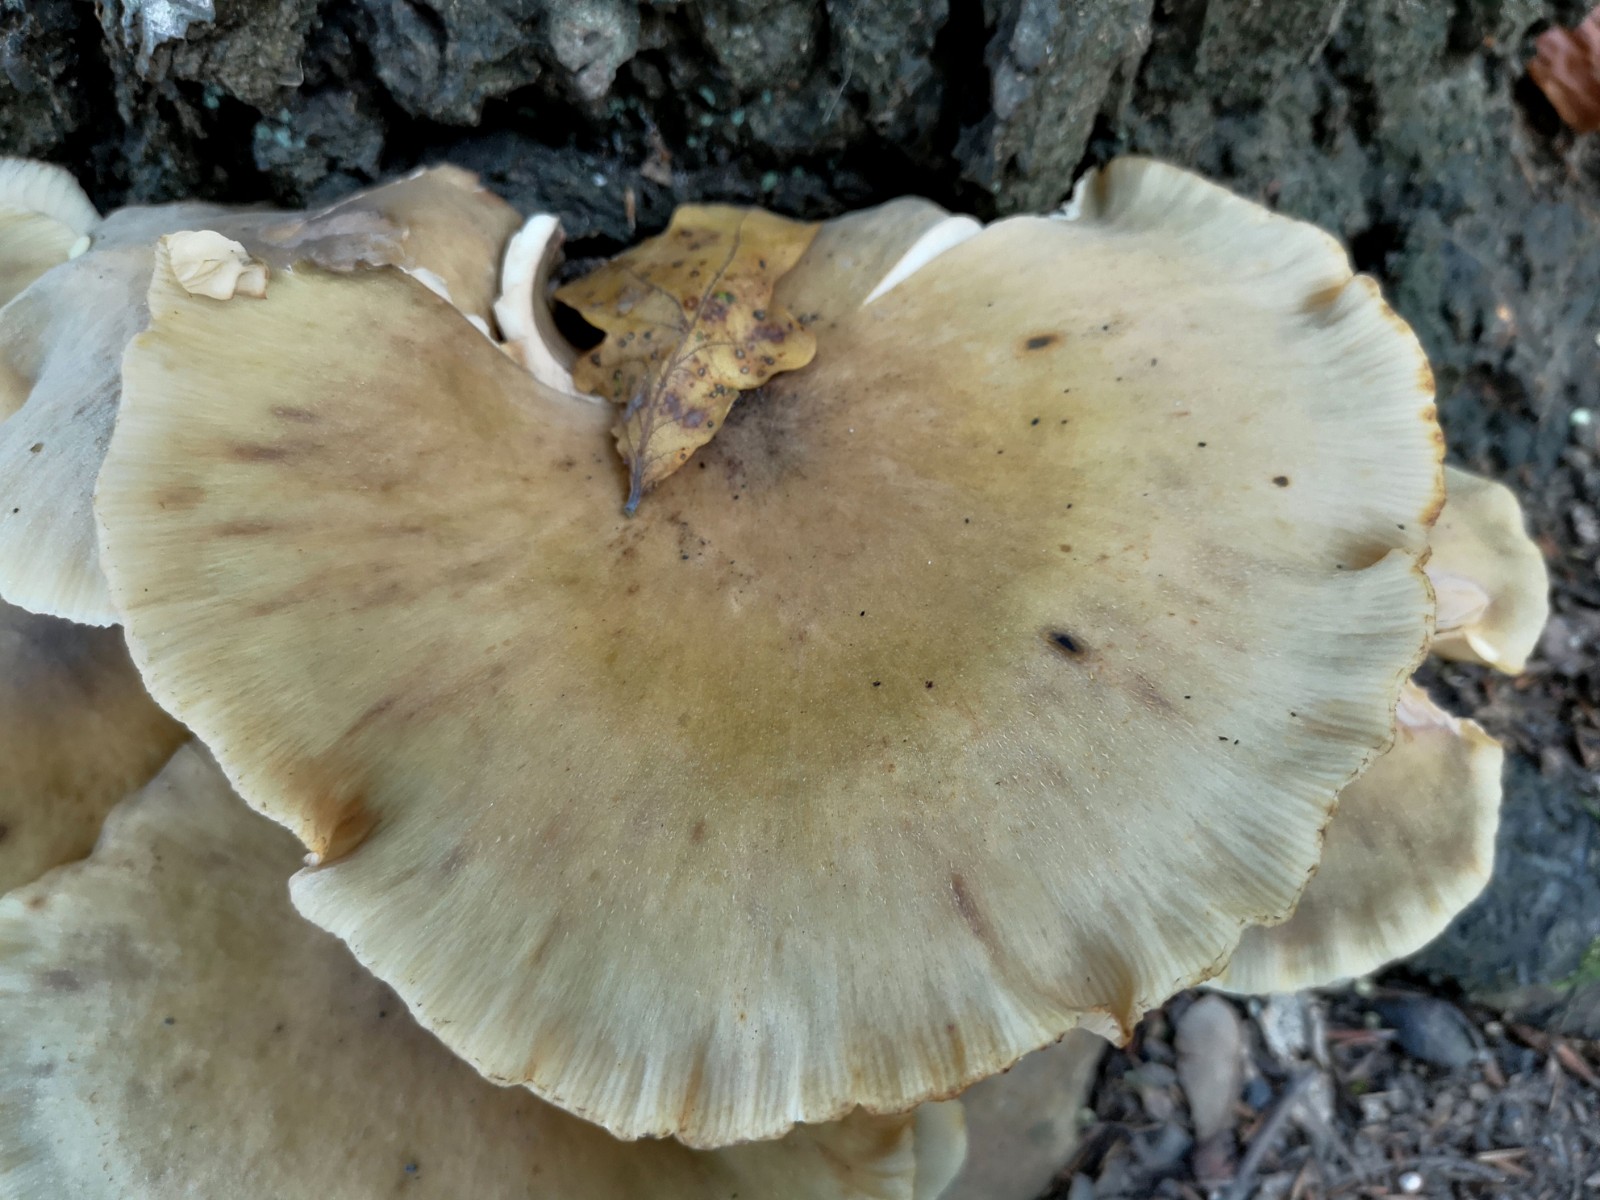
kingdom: Fungi
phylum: Basidiomycota
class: Agaricomycetes
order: Agaricales
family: Physalacriaceae
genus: Armillaria
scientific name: Armillaria lutea
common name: køllestokket honningsvamp
